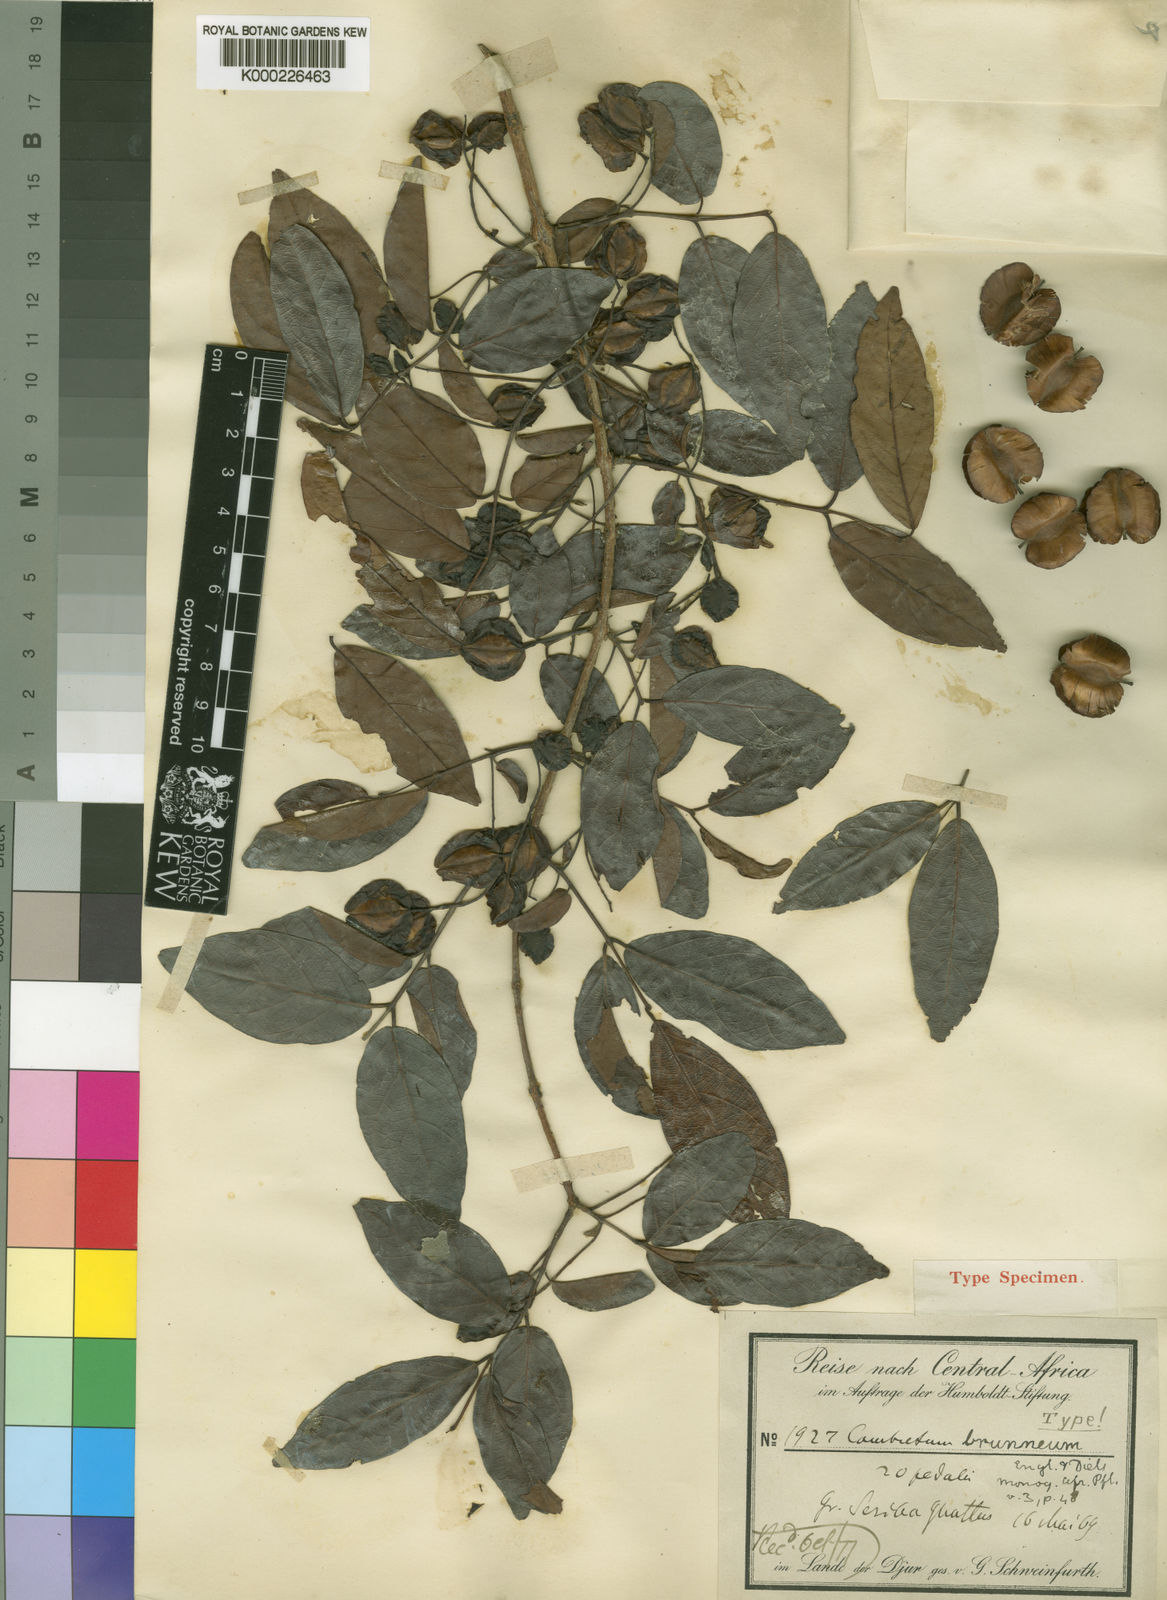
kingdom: Plantae
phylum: Tracheophyta
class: Magnoliopsida
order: Myrtales
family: Combretaceae
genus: Combretum
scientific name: Combretum nigricans
